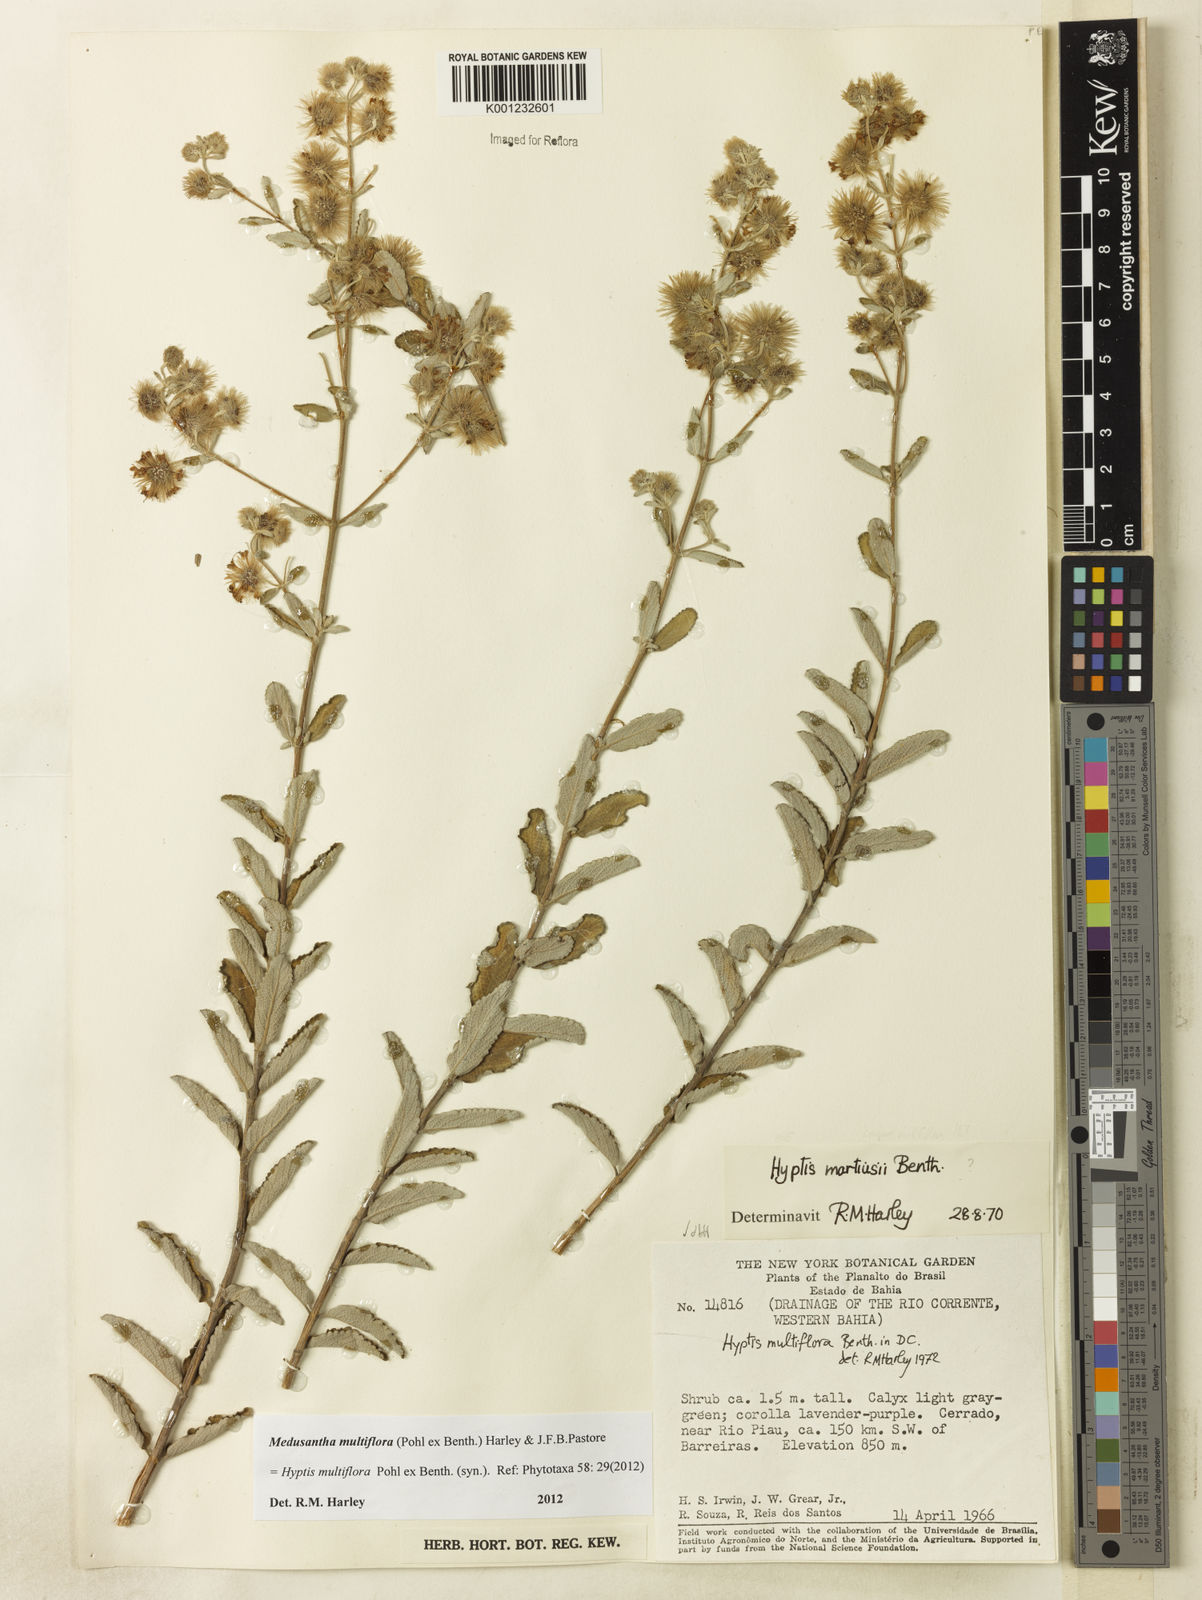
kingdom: Plantae
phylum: Tracheophyta
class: Magnoliopsida
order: Lamiales
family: Lamiaceae
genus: Medusantha
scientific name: Medusantha multiflora
